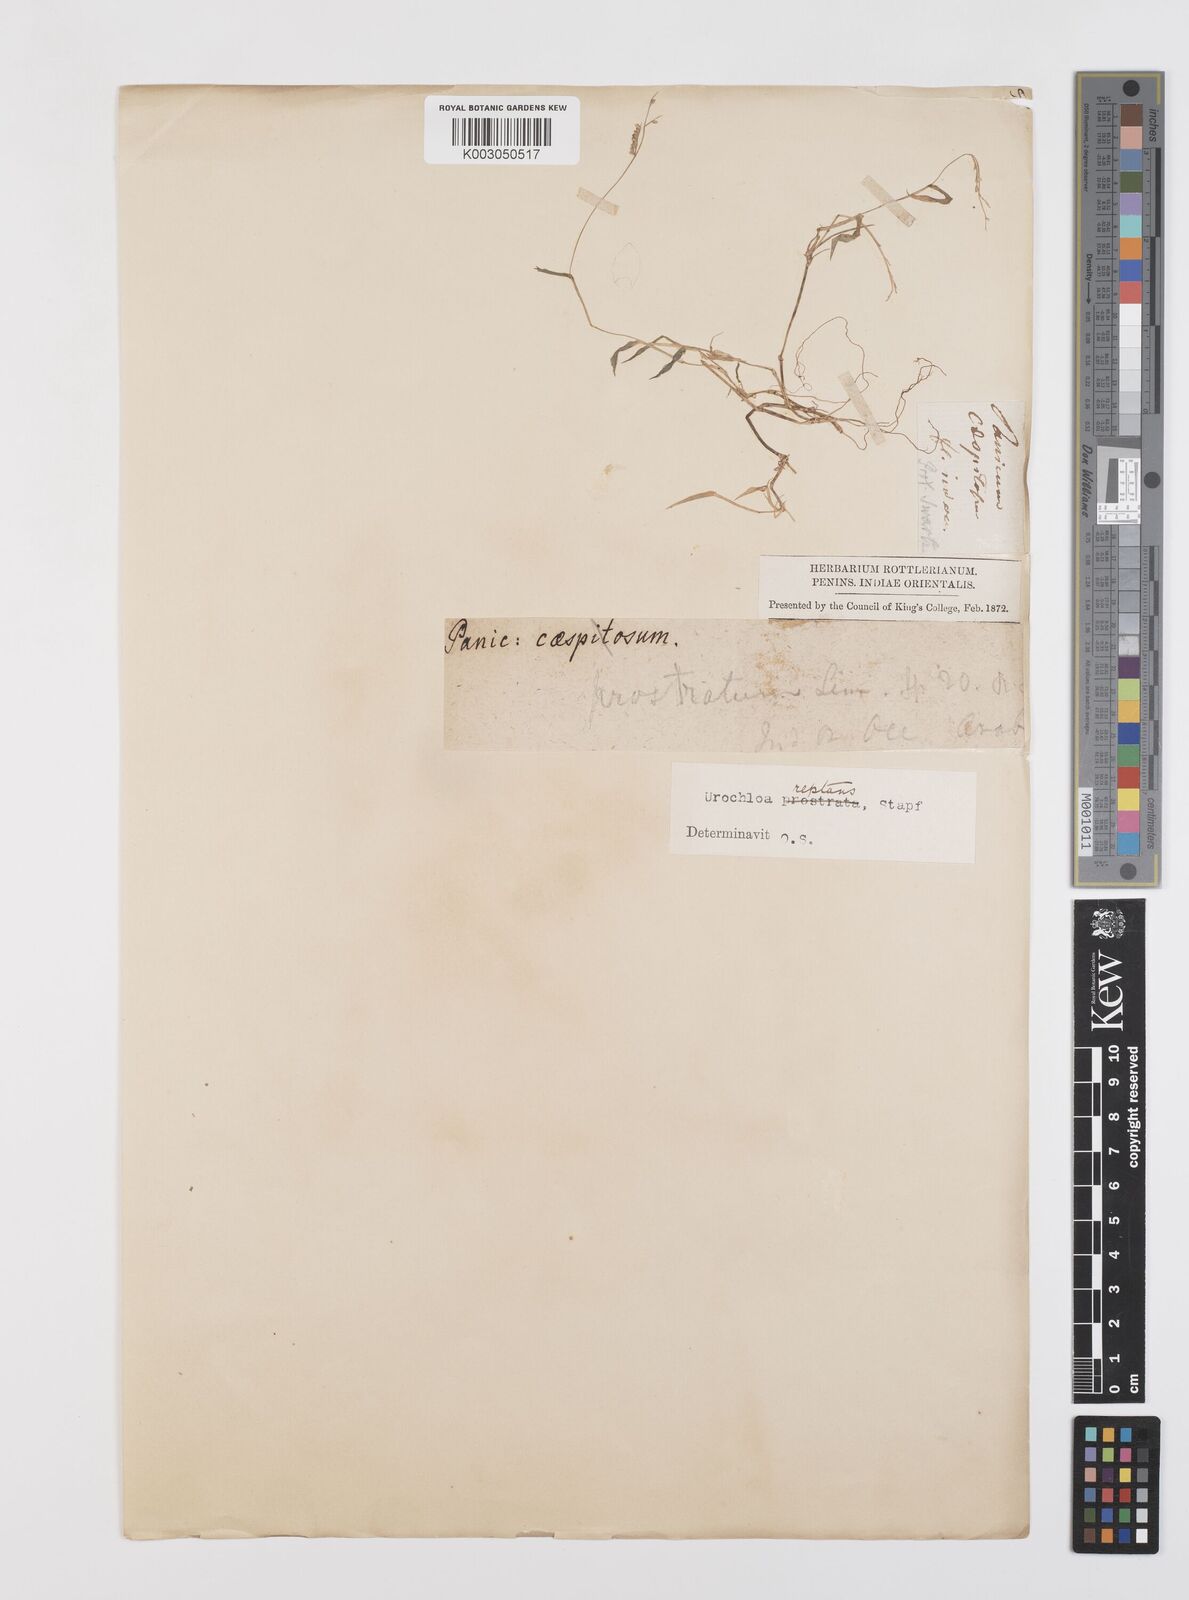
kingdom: Plantae
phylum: Tracheophyta
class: Liliopsida
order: Poales
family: Poaceae
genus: Urochloa
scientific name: Urochloa reptans
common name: Sprawling signalgrass
